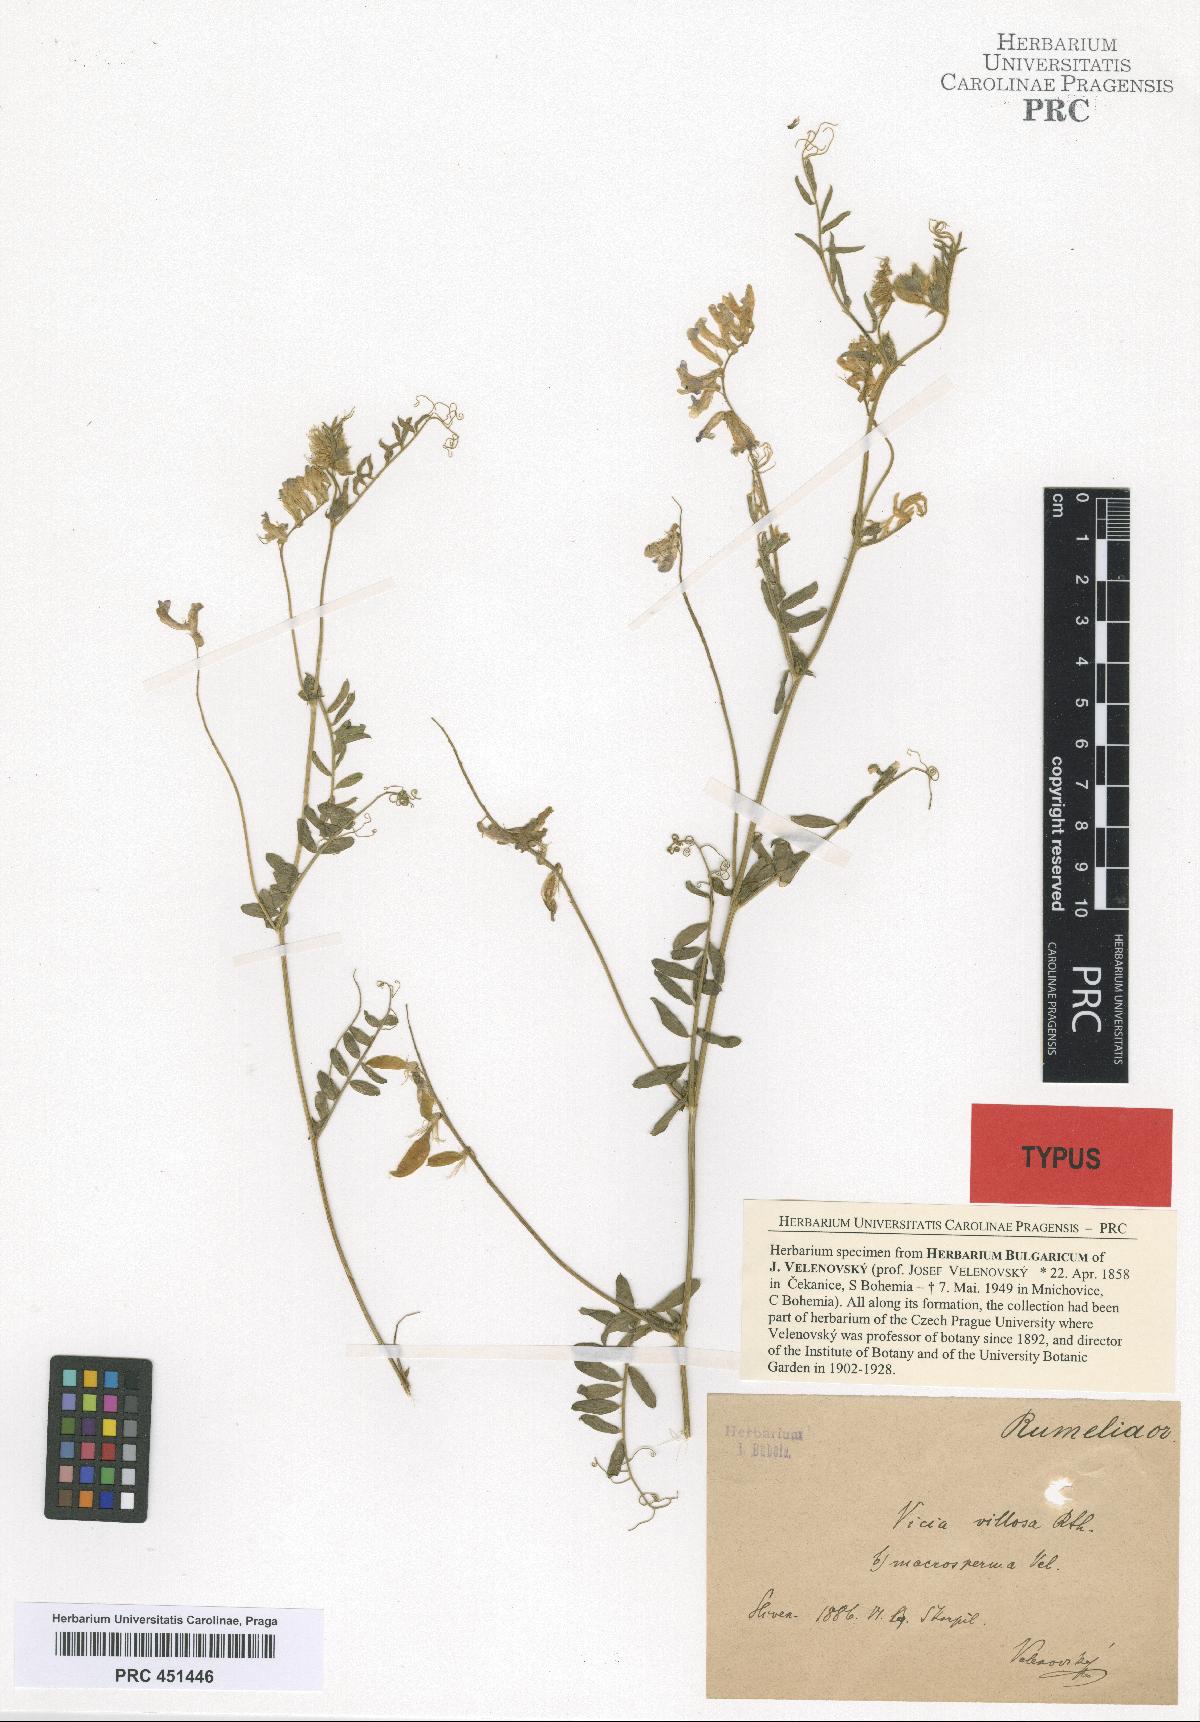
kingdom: Plantae
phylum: Tracheophyta
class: Magnoliopsida
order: Fabales
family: Fabaceae
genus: Vicia
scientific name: Vicia villosa
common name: Fodder vetch
